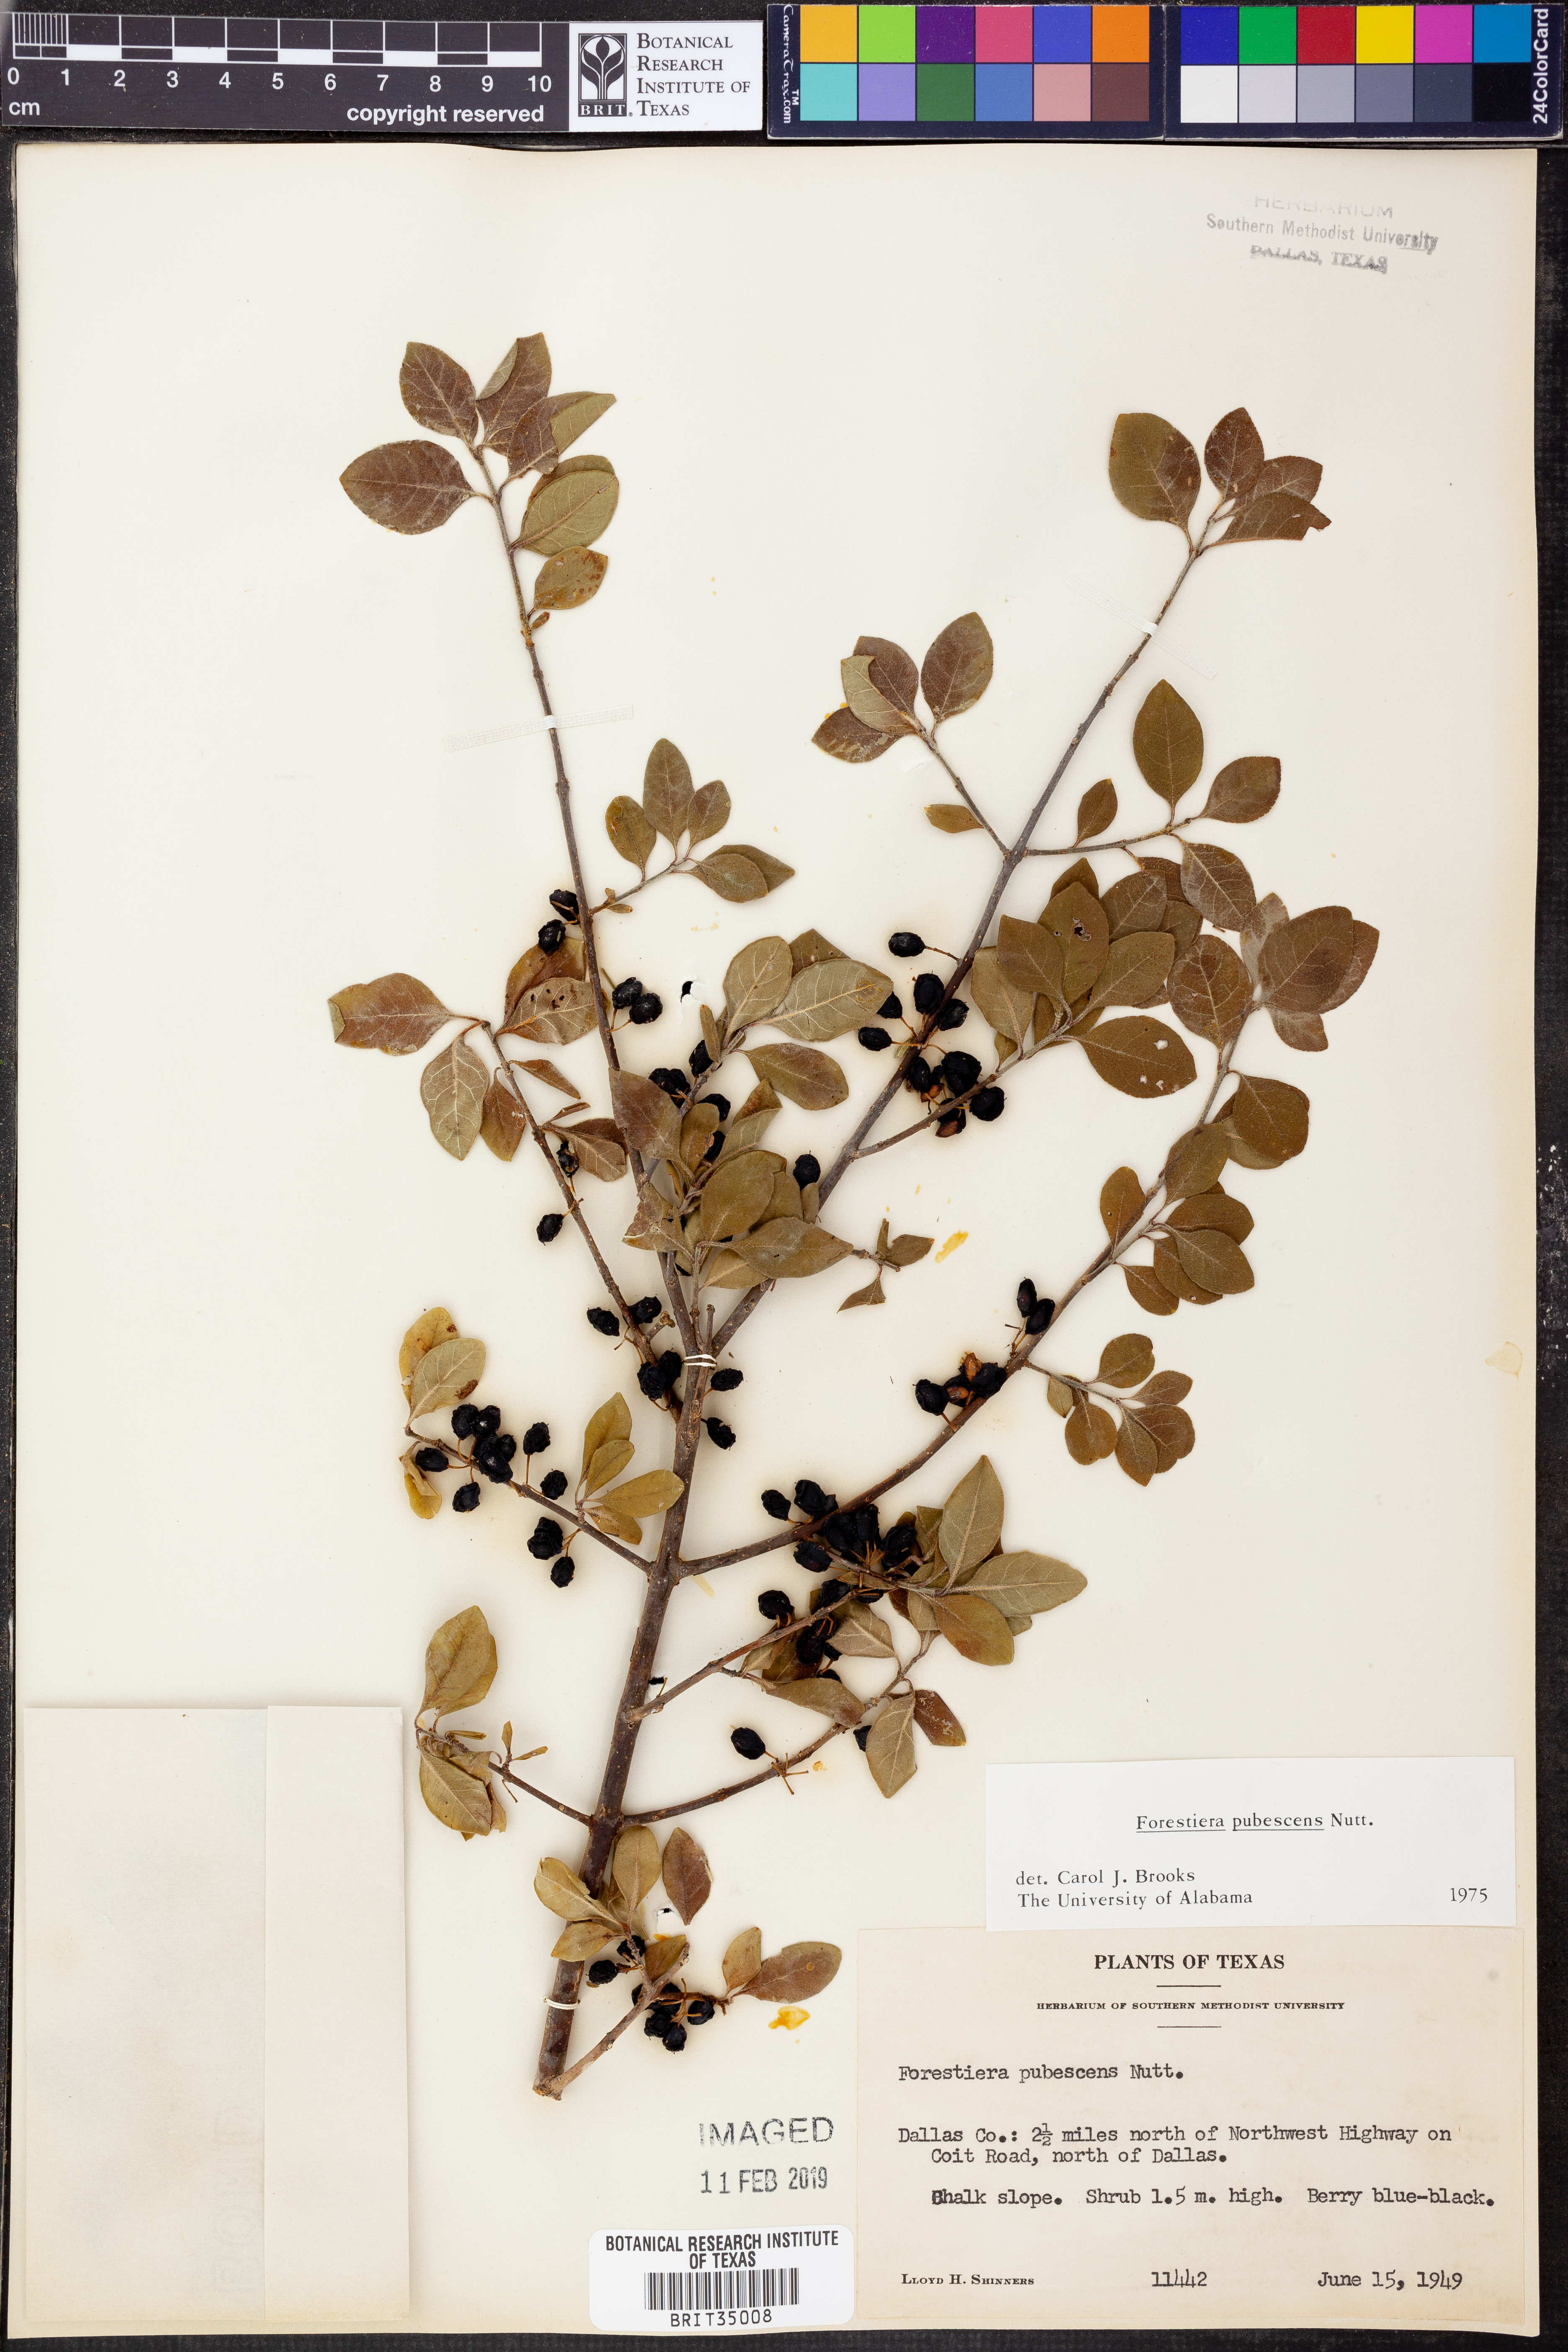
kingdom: Plantae
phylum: Tracheophyta
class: Magnoliopsida
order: Lamiales
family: Oleaceae
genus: Forestiera
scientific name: Forestiera pubescens
